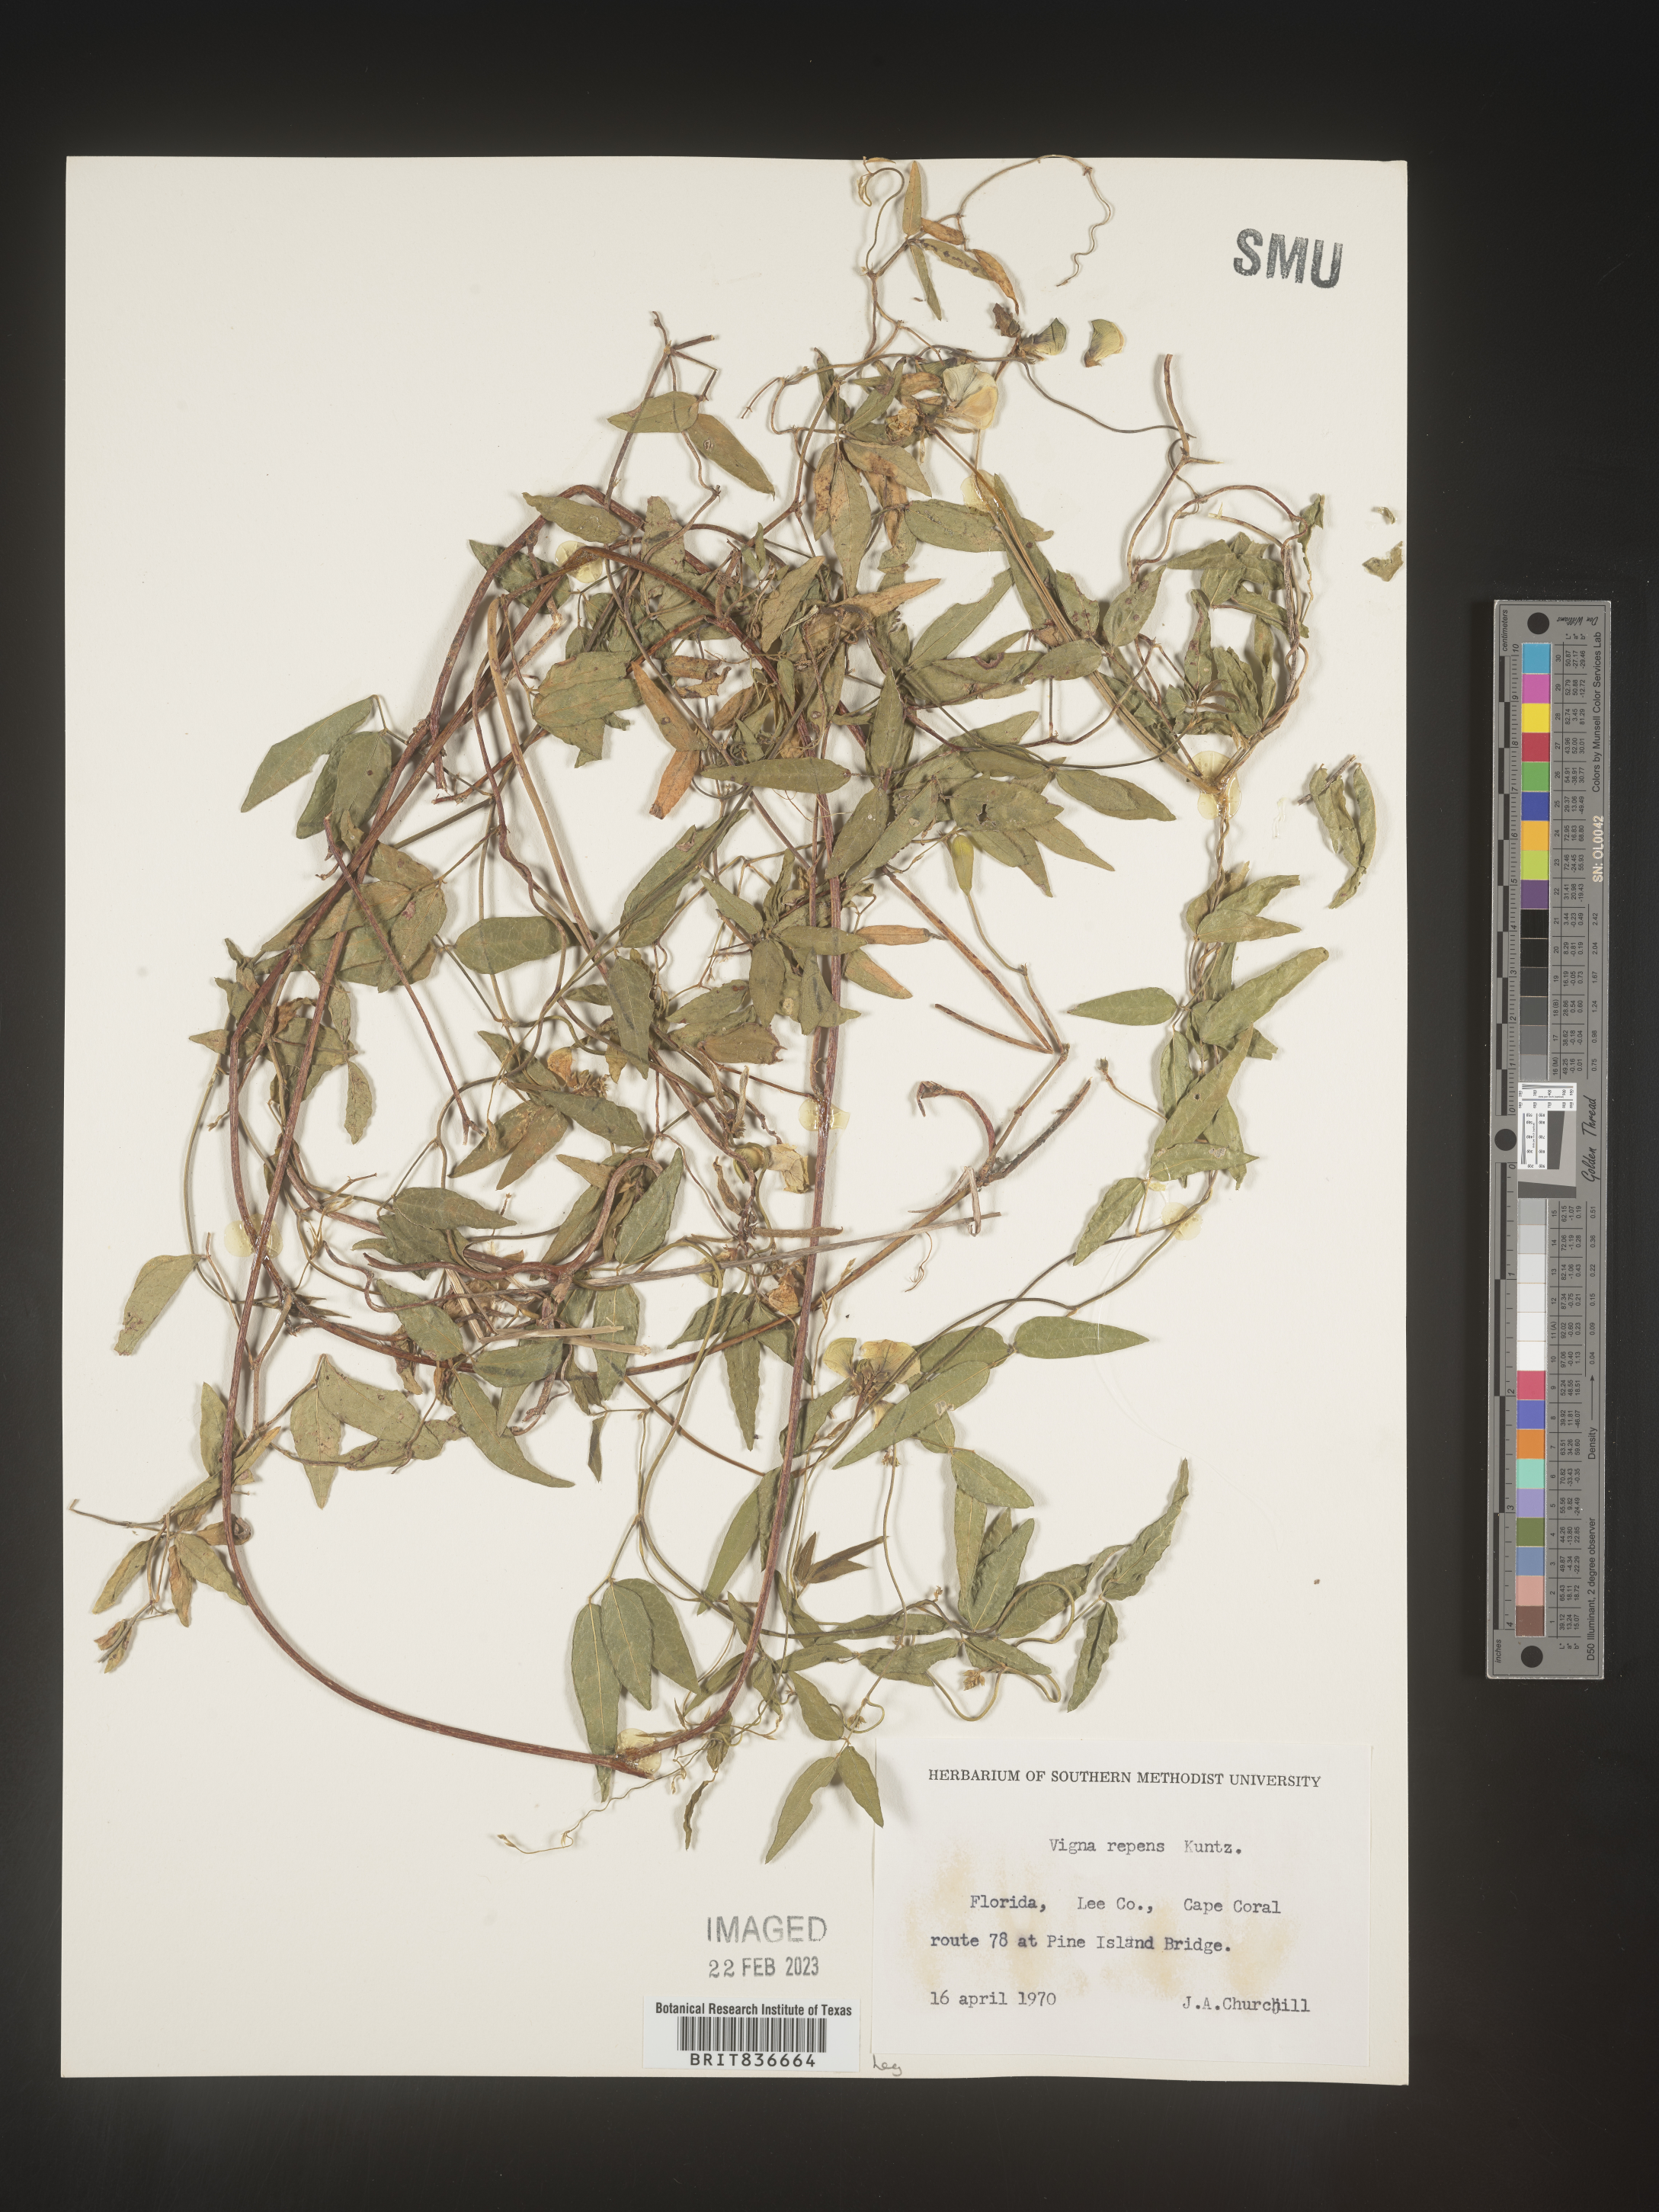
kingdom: Plantae
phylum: Tracheophyta
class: Magnoliopsida
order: Fabales
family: Fabaceae
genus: Vigna
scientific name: Vigna luteola
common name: Hairypod cowpea
